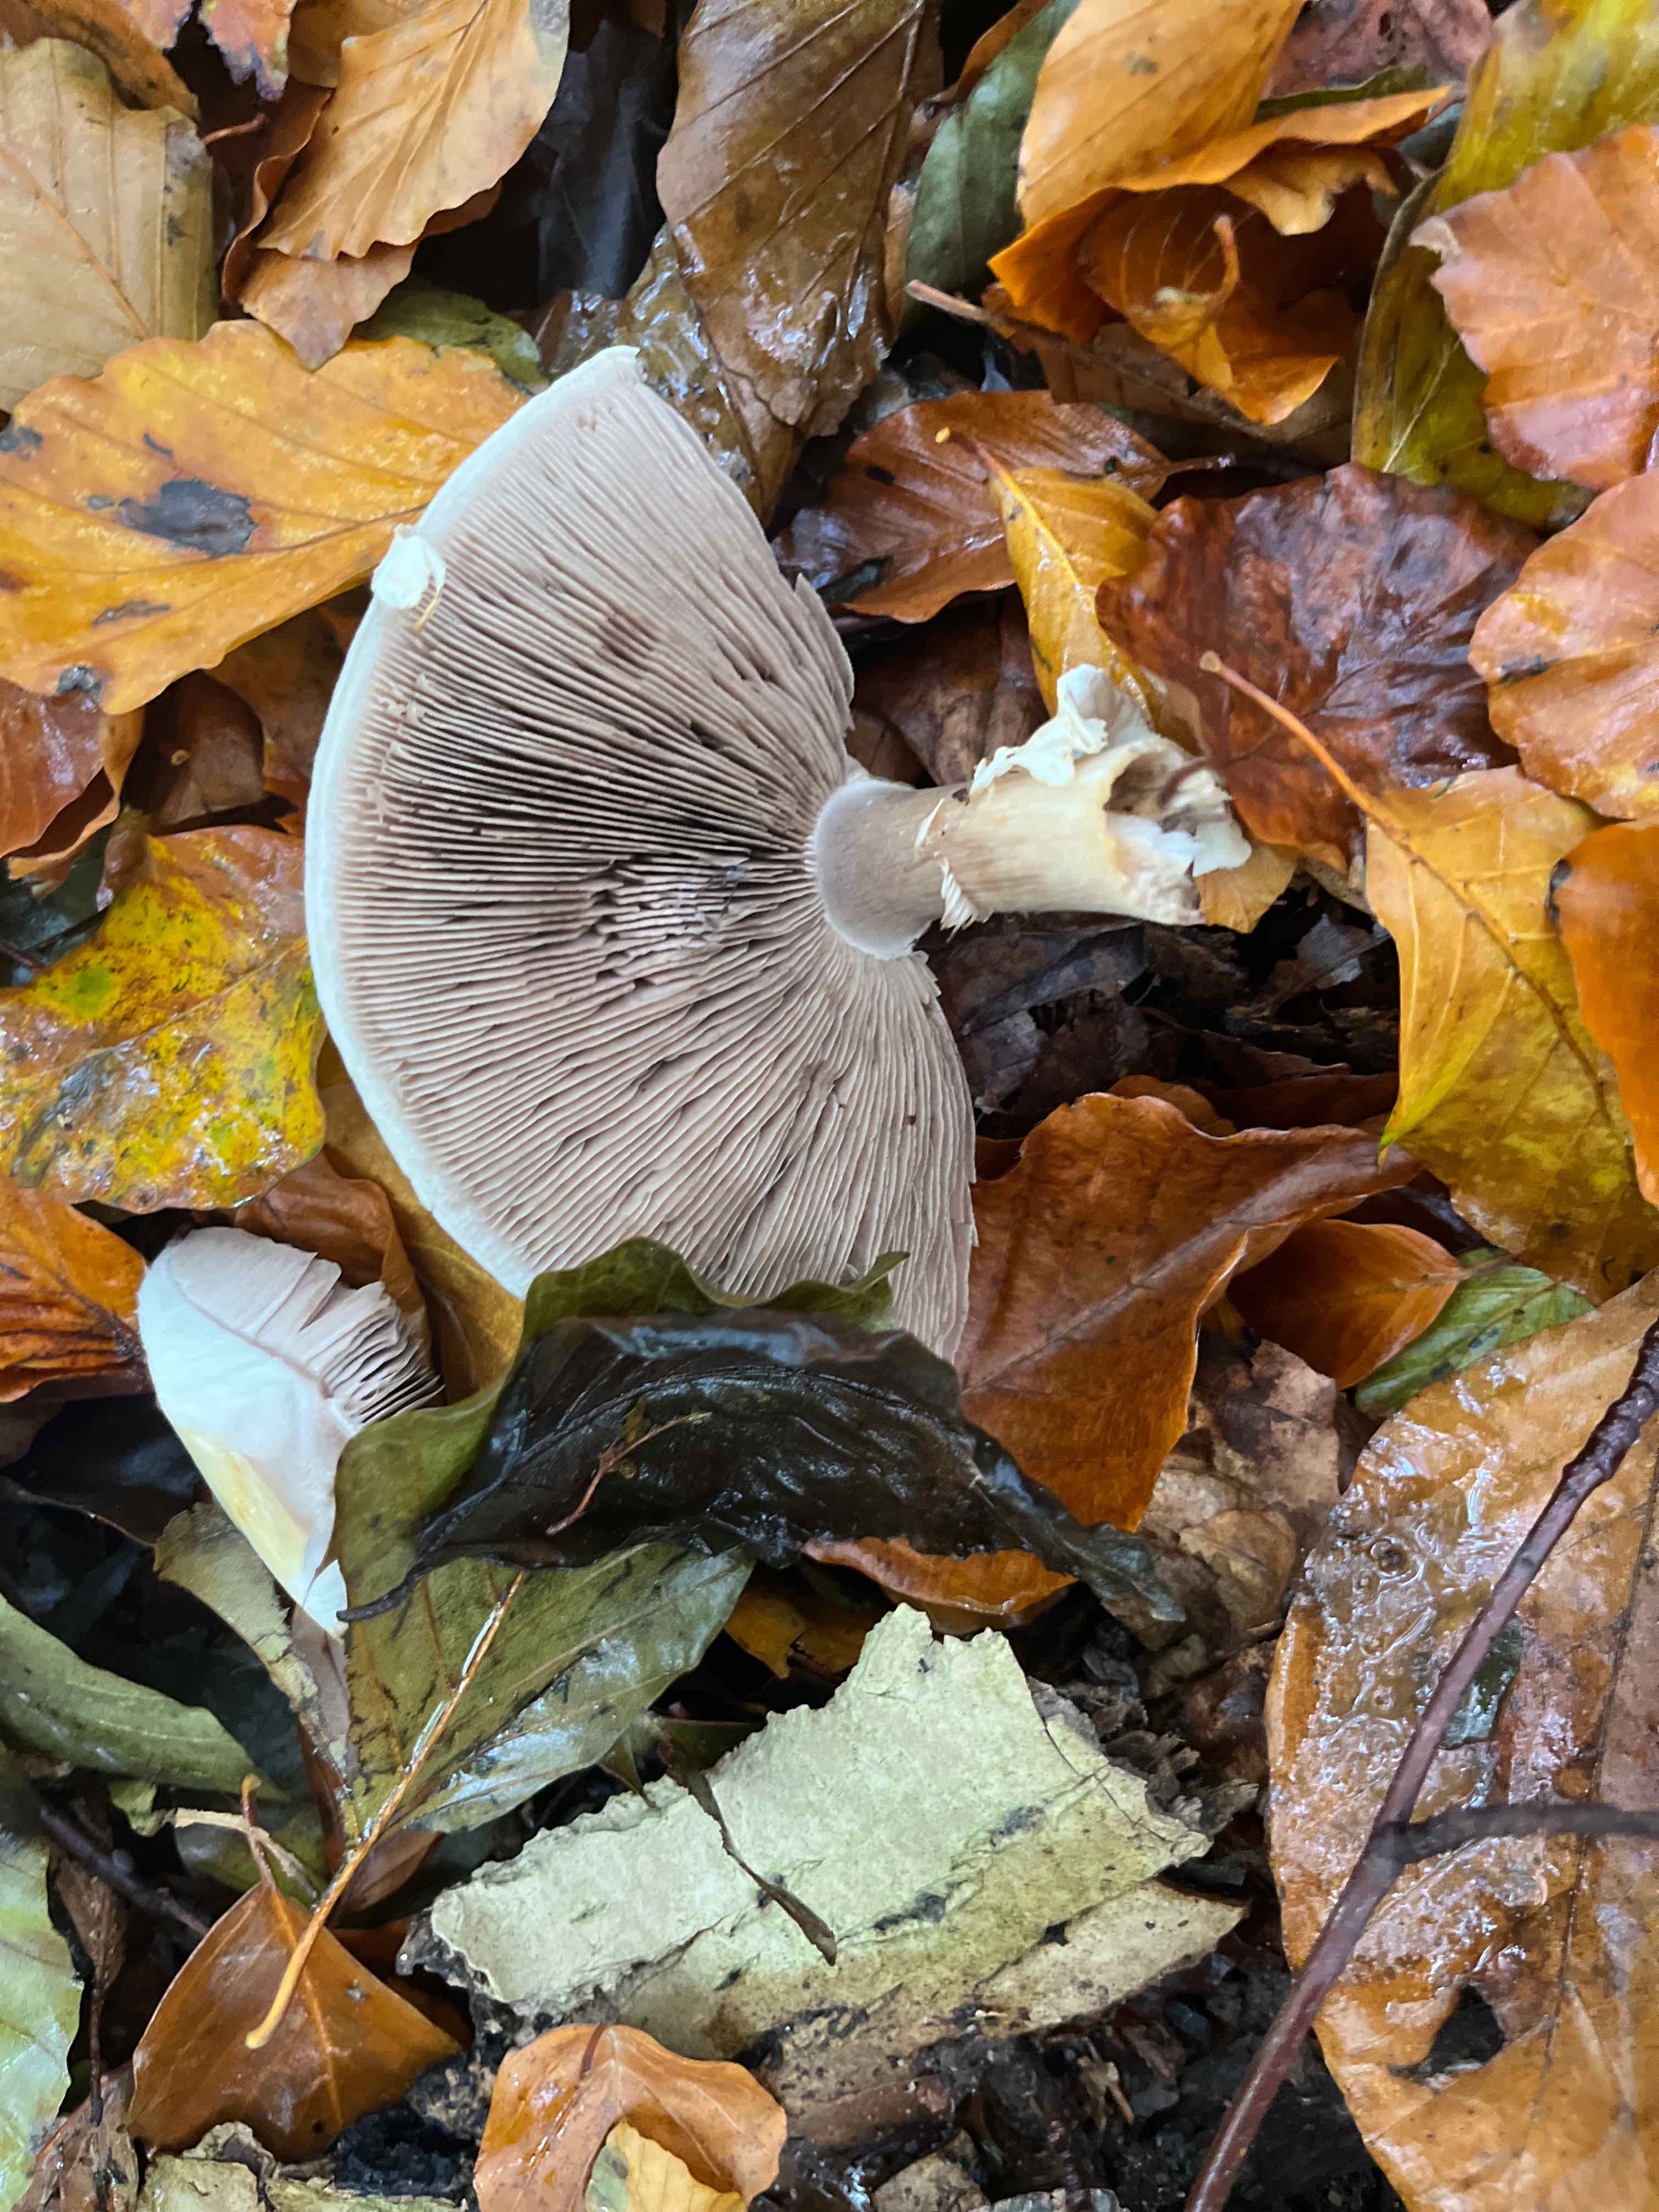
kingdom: Fungi
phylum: Basidiomycota
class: Agaricomycetes
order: Agaricales
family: Agaricaceae
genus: Agaricus
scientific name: Agaricus
